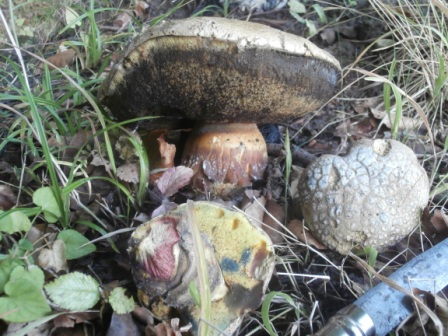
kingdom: Fungi
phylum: Basidiomycota
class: Agaricomycetes
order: Boletales
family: Boletaceae
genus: Caloboletus
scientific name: Caloboletus calopus
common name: skønfodet rørhat
